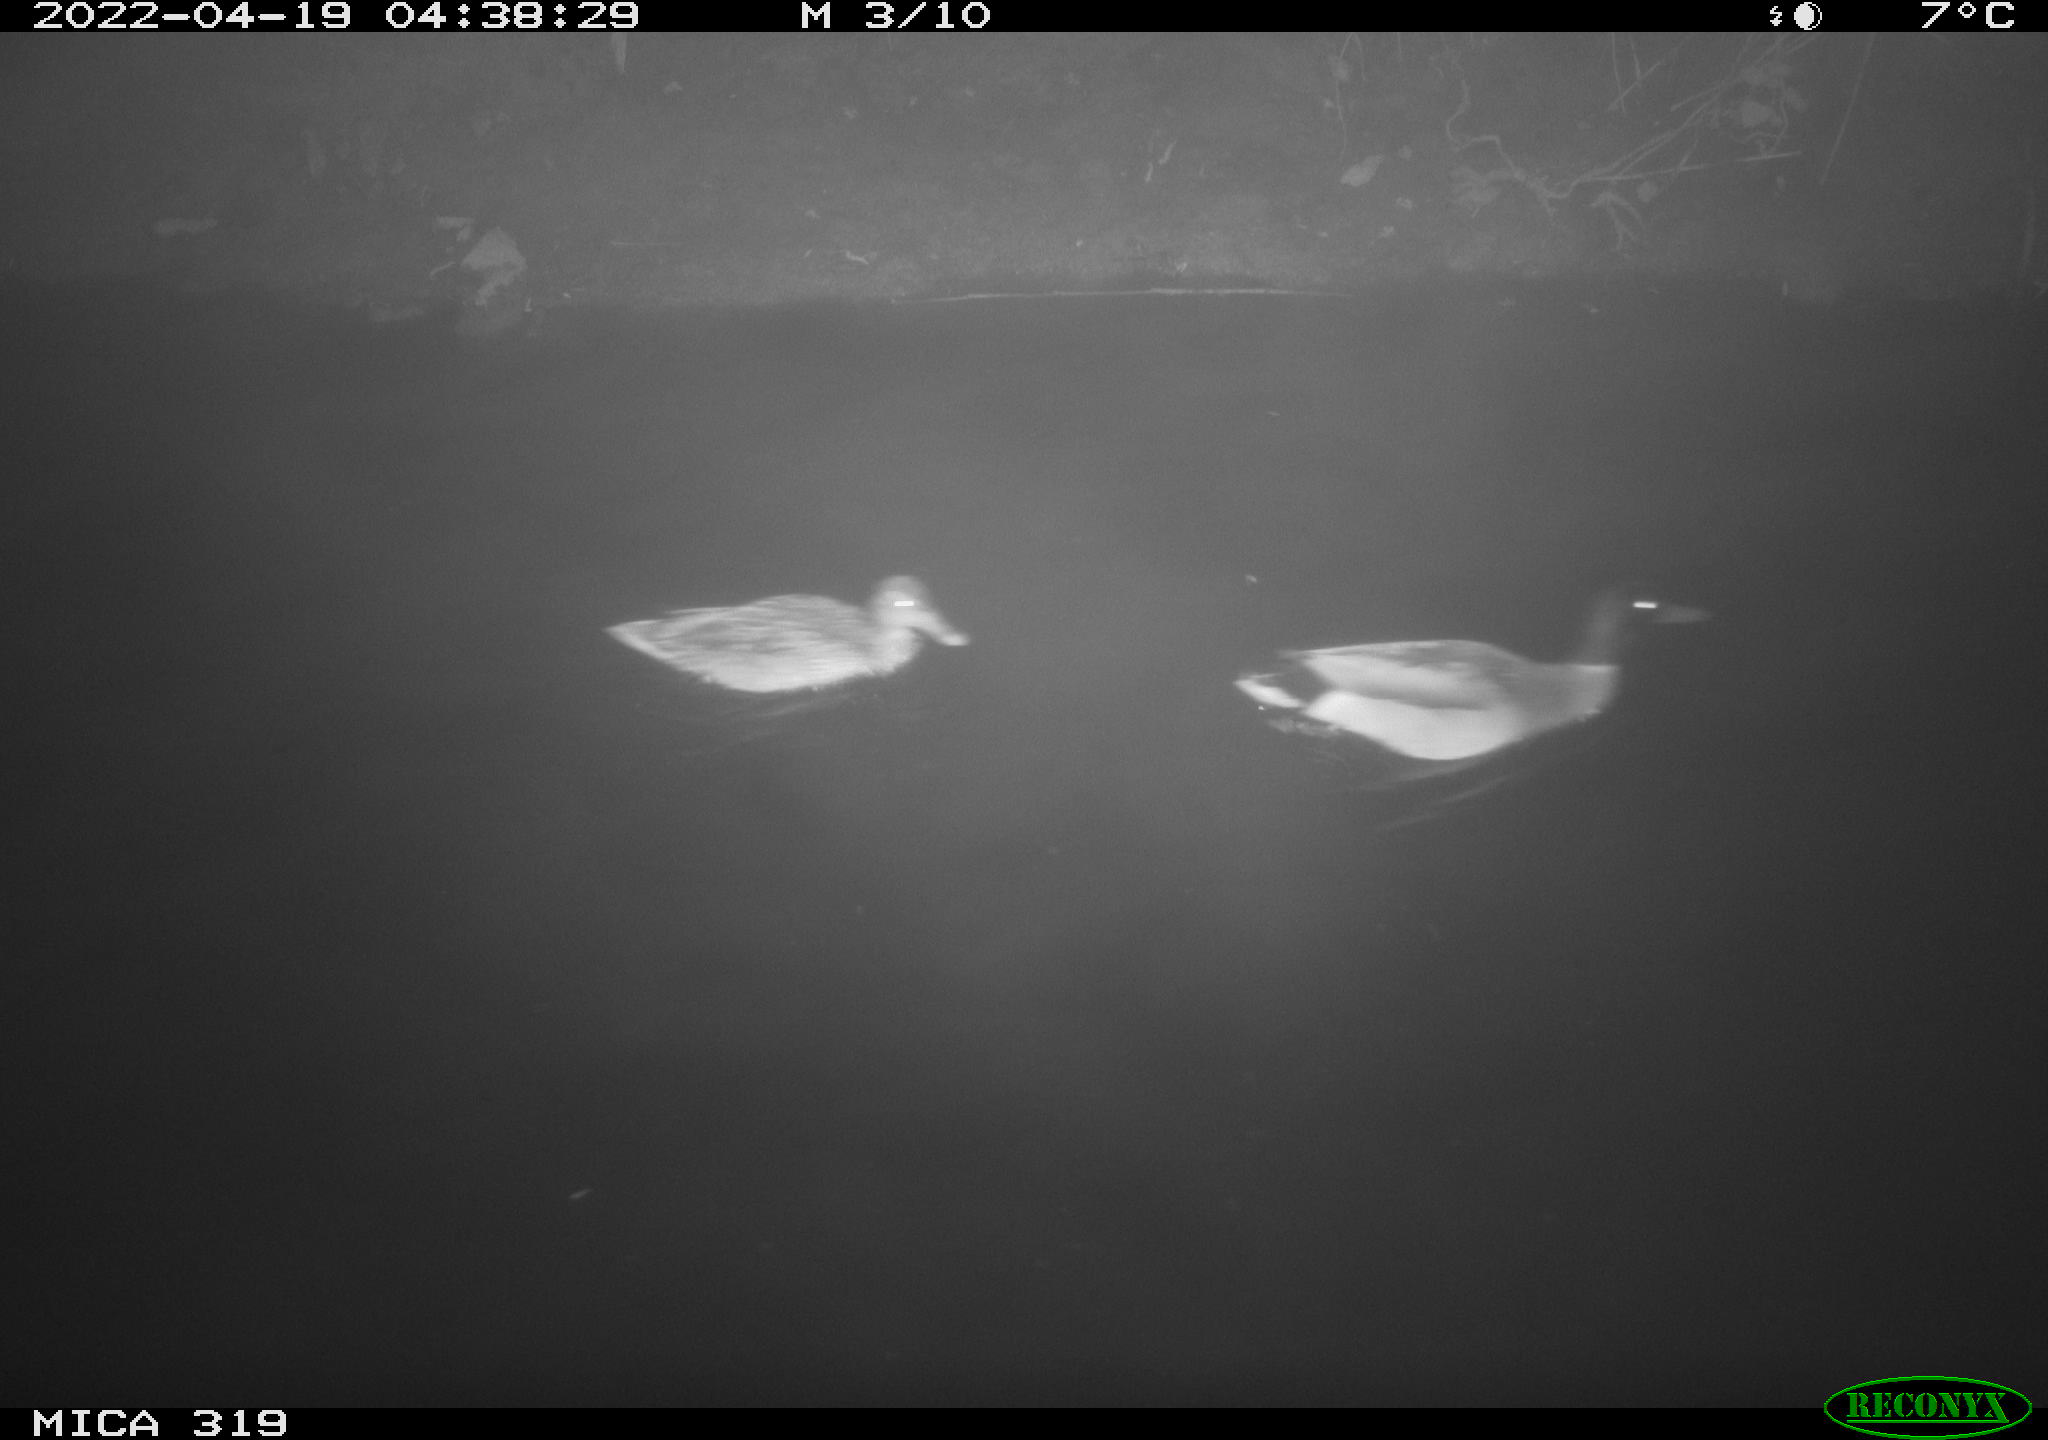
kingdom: Animalia
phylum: Chordata
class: Aves
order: Anseriformes
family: Anatidae
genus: Anas
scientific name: Anas platyrhynchos
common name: Mallard
